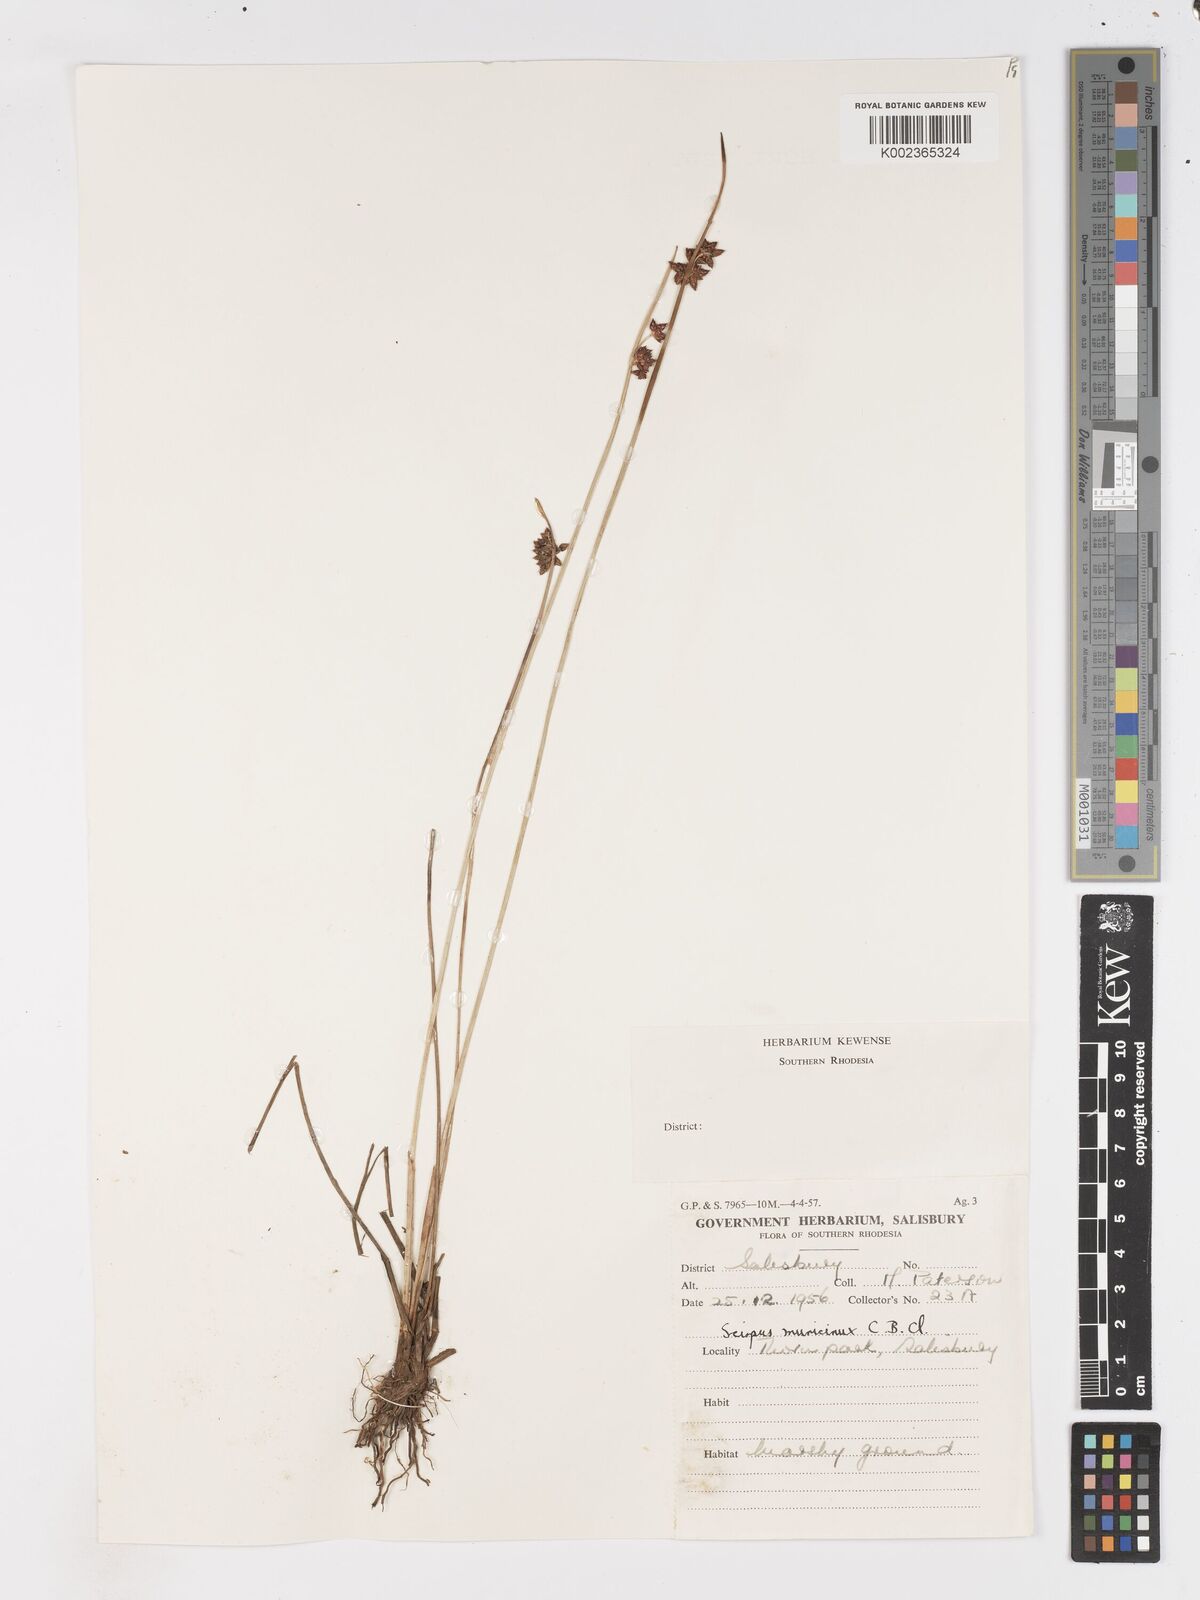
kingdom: Plantae
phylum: Tracheophyta
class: Liliopsida
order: Poales
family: Cyperaceae
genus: Schoenoplectus
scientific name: Schoenoplectus
